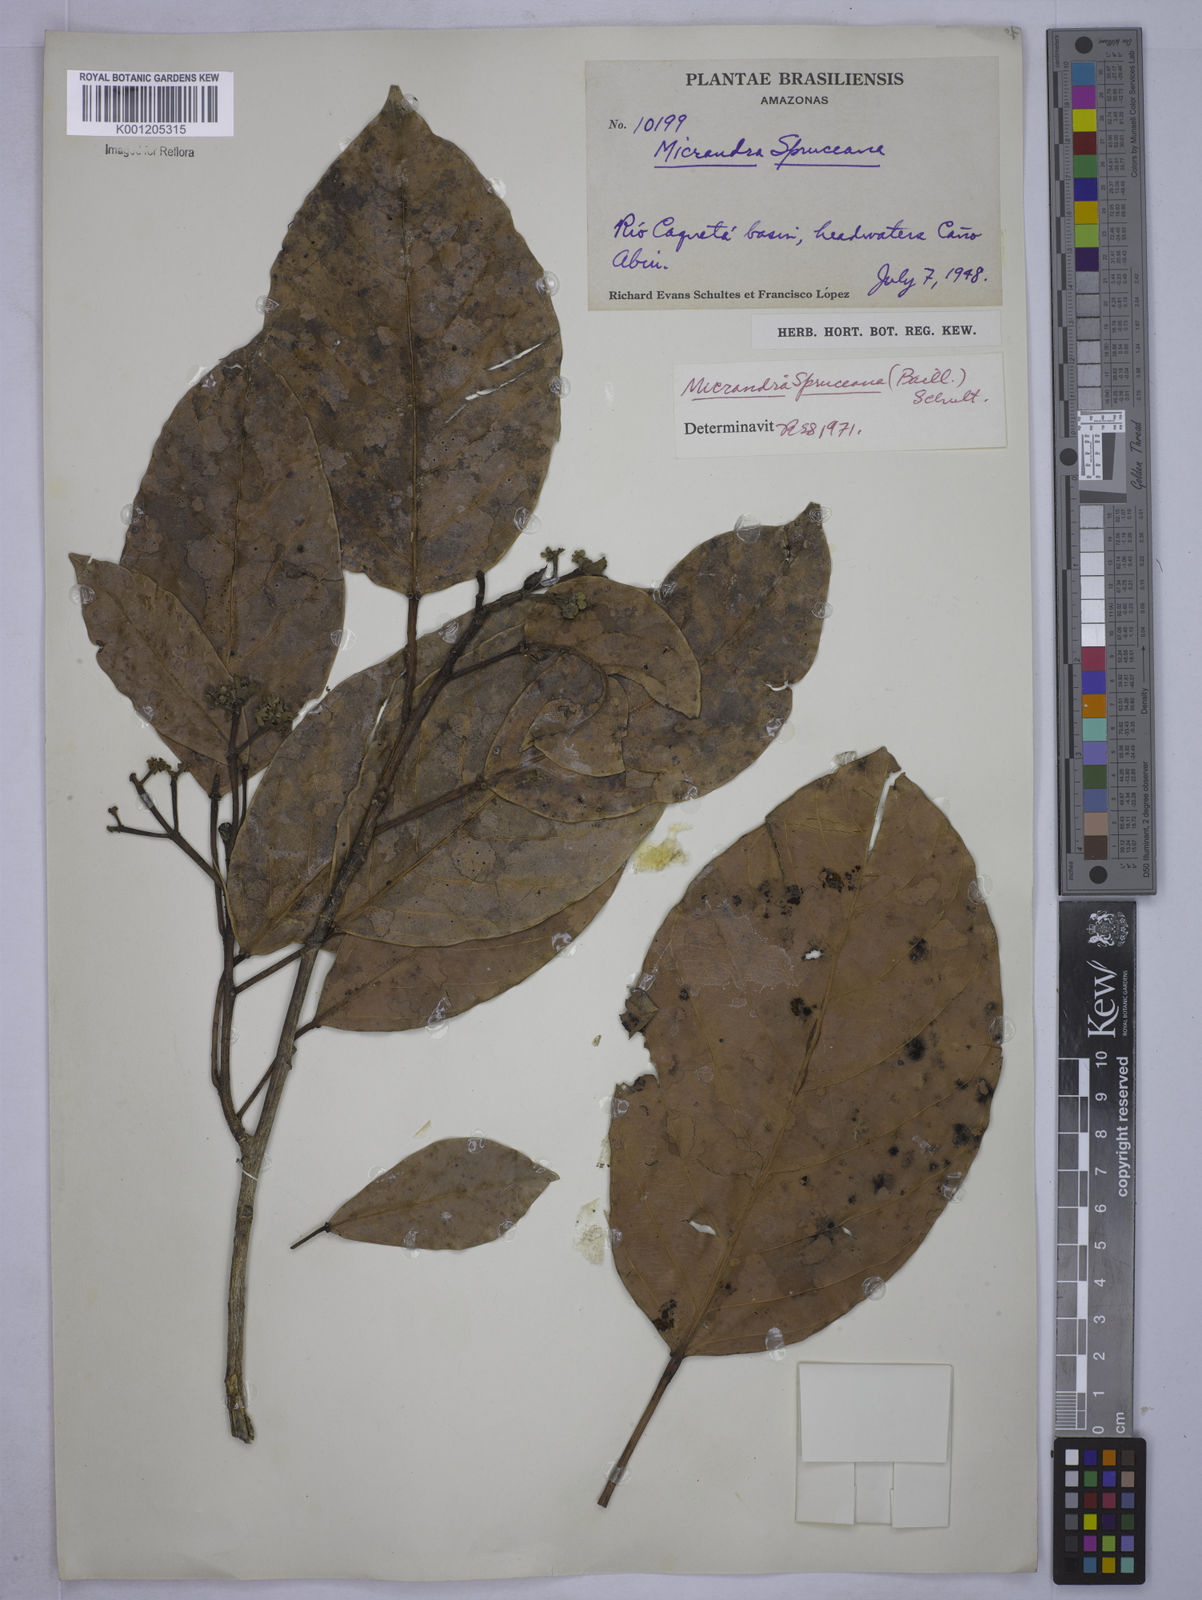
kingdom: Plantae
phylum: Tracheophyta
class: Magnoliopsida
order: Malpighiales
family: Euphorbiaceae
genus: Micrandra
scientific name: Micrandra spruceana
